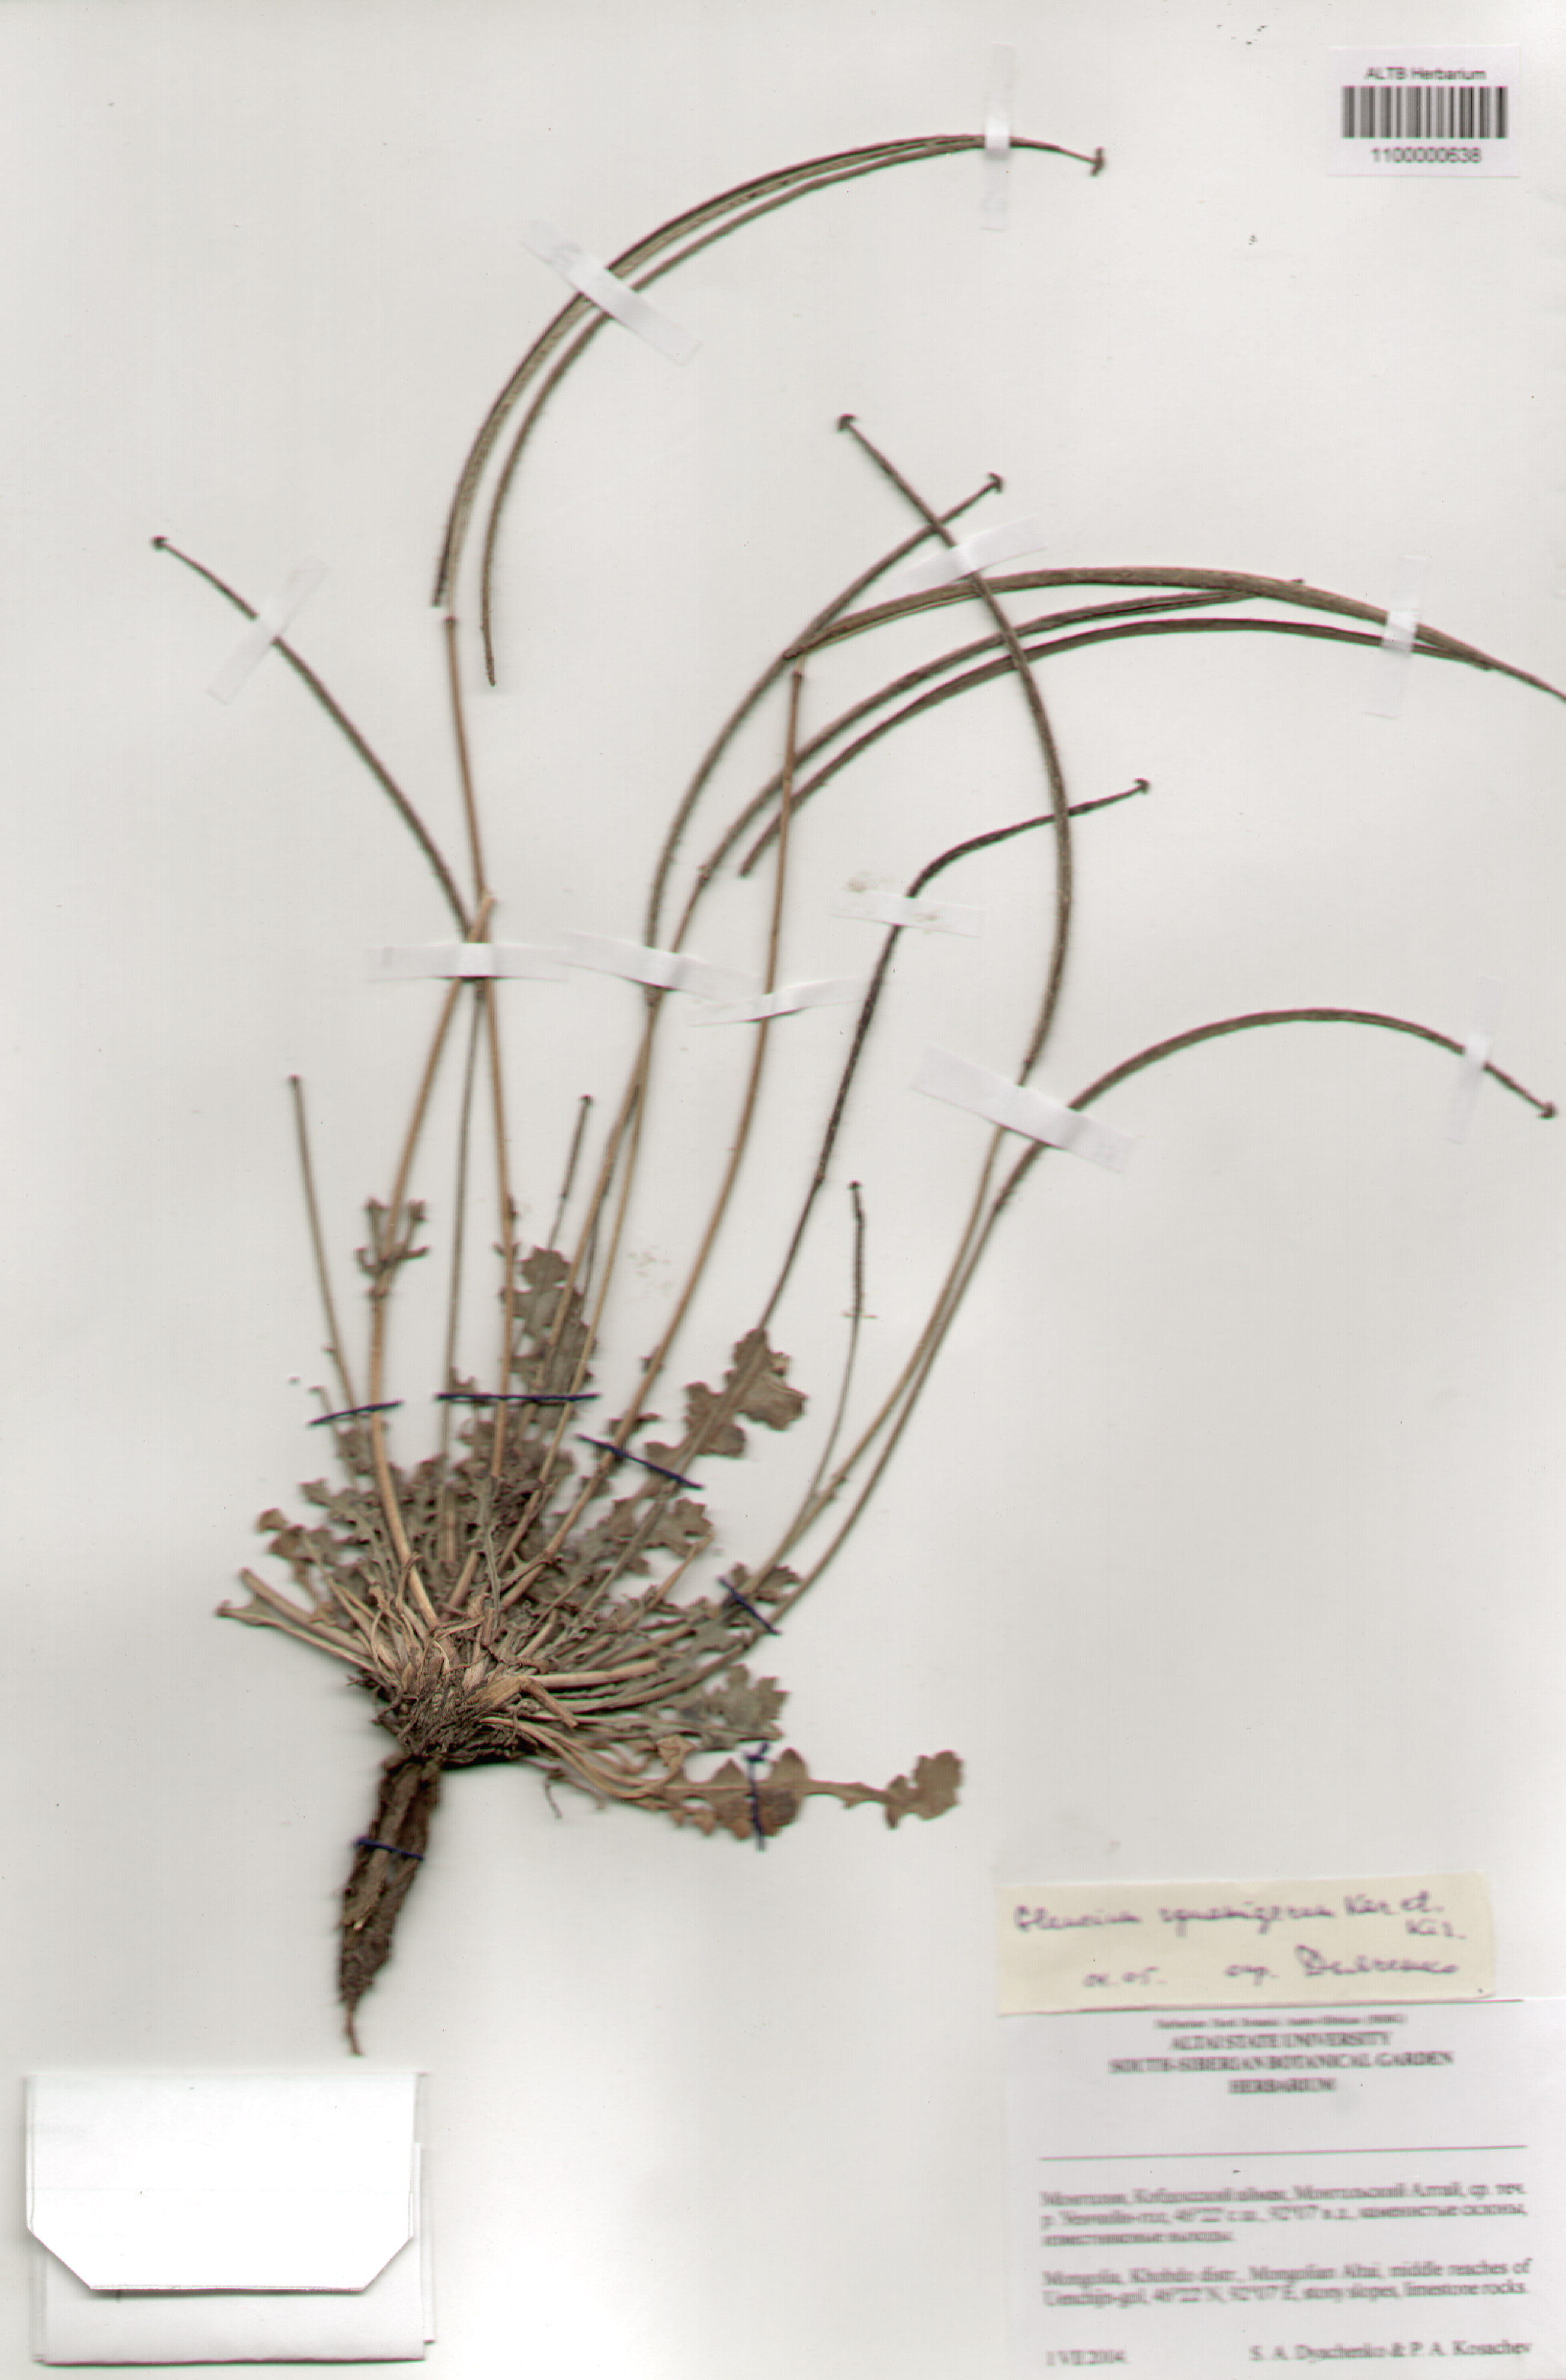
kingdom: Plantae
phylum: Tracheophyta
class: Magnoliopsida
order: Ranunculales
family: Papaveraceae
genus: Glaucium
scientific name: Glaucium squamigerum
